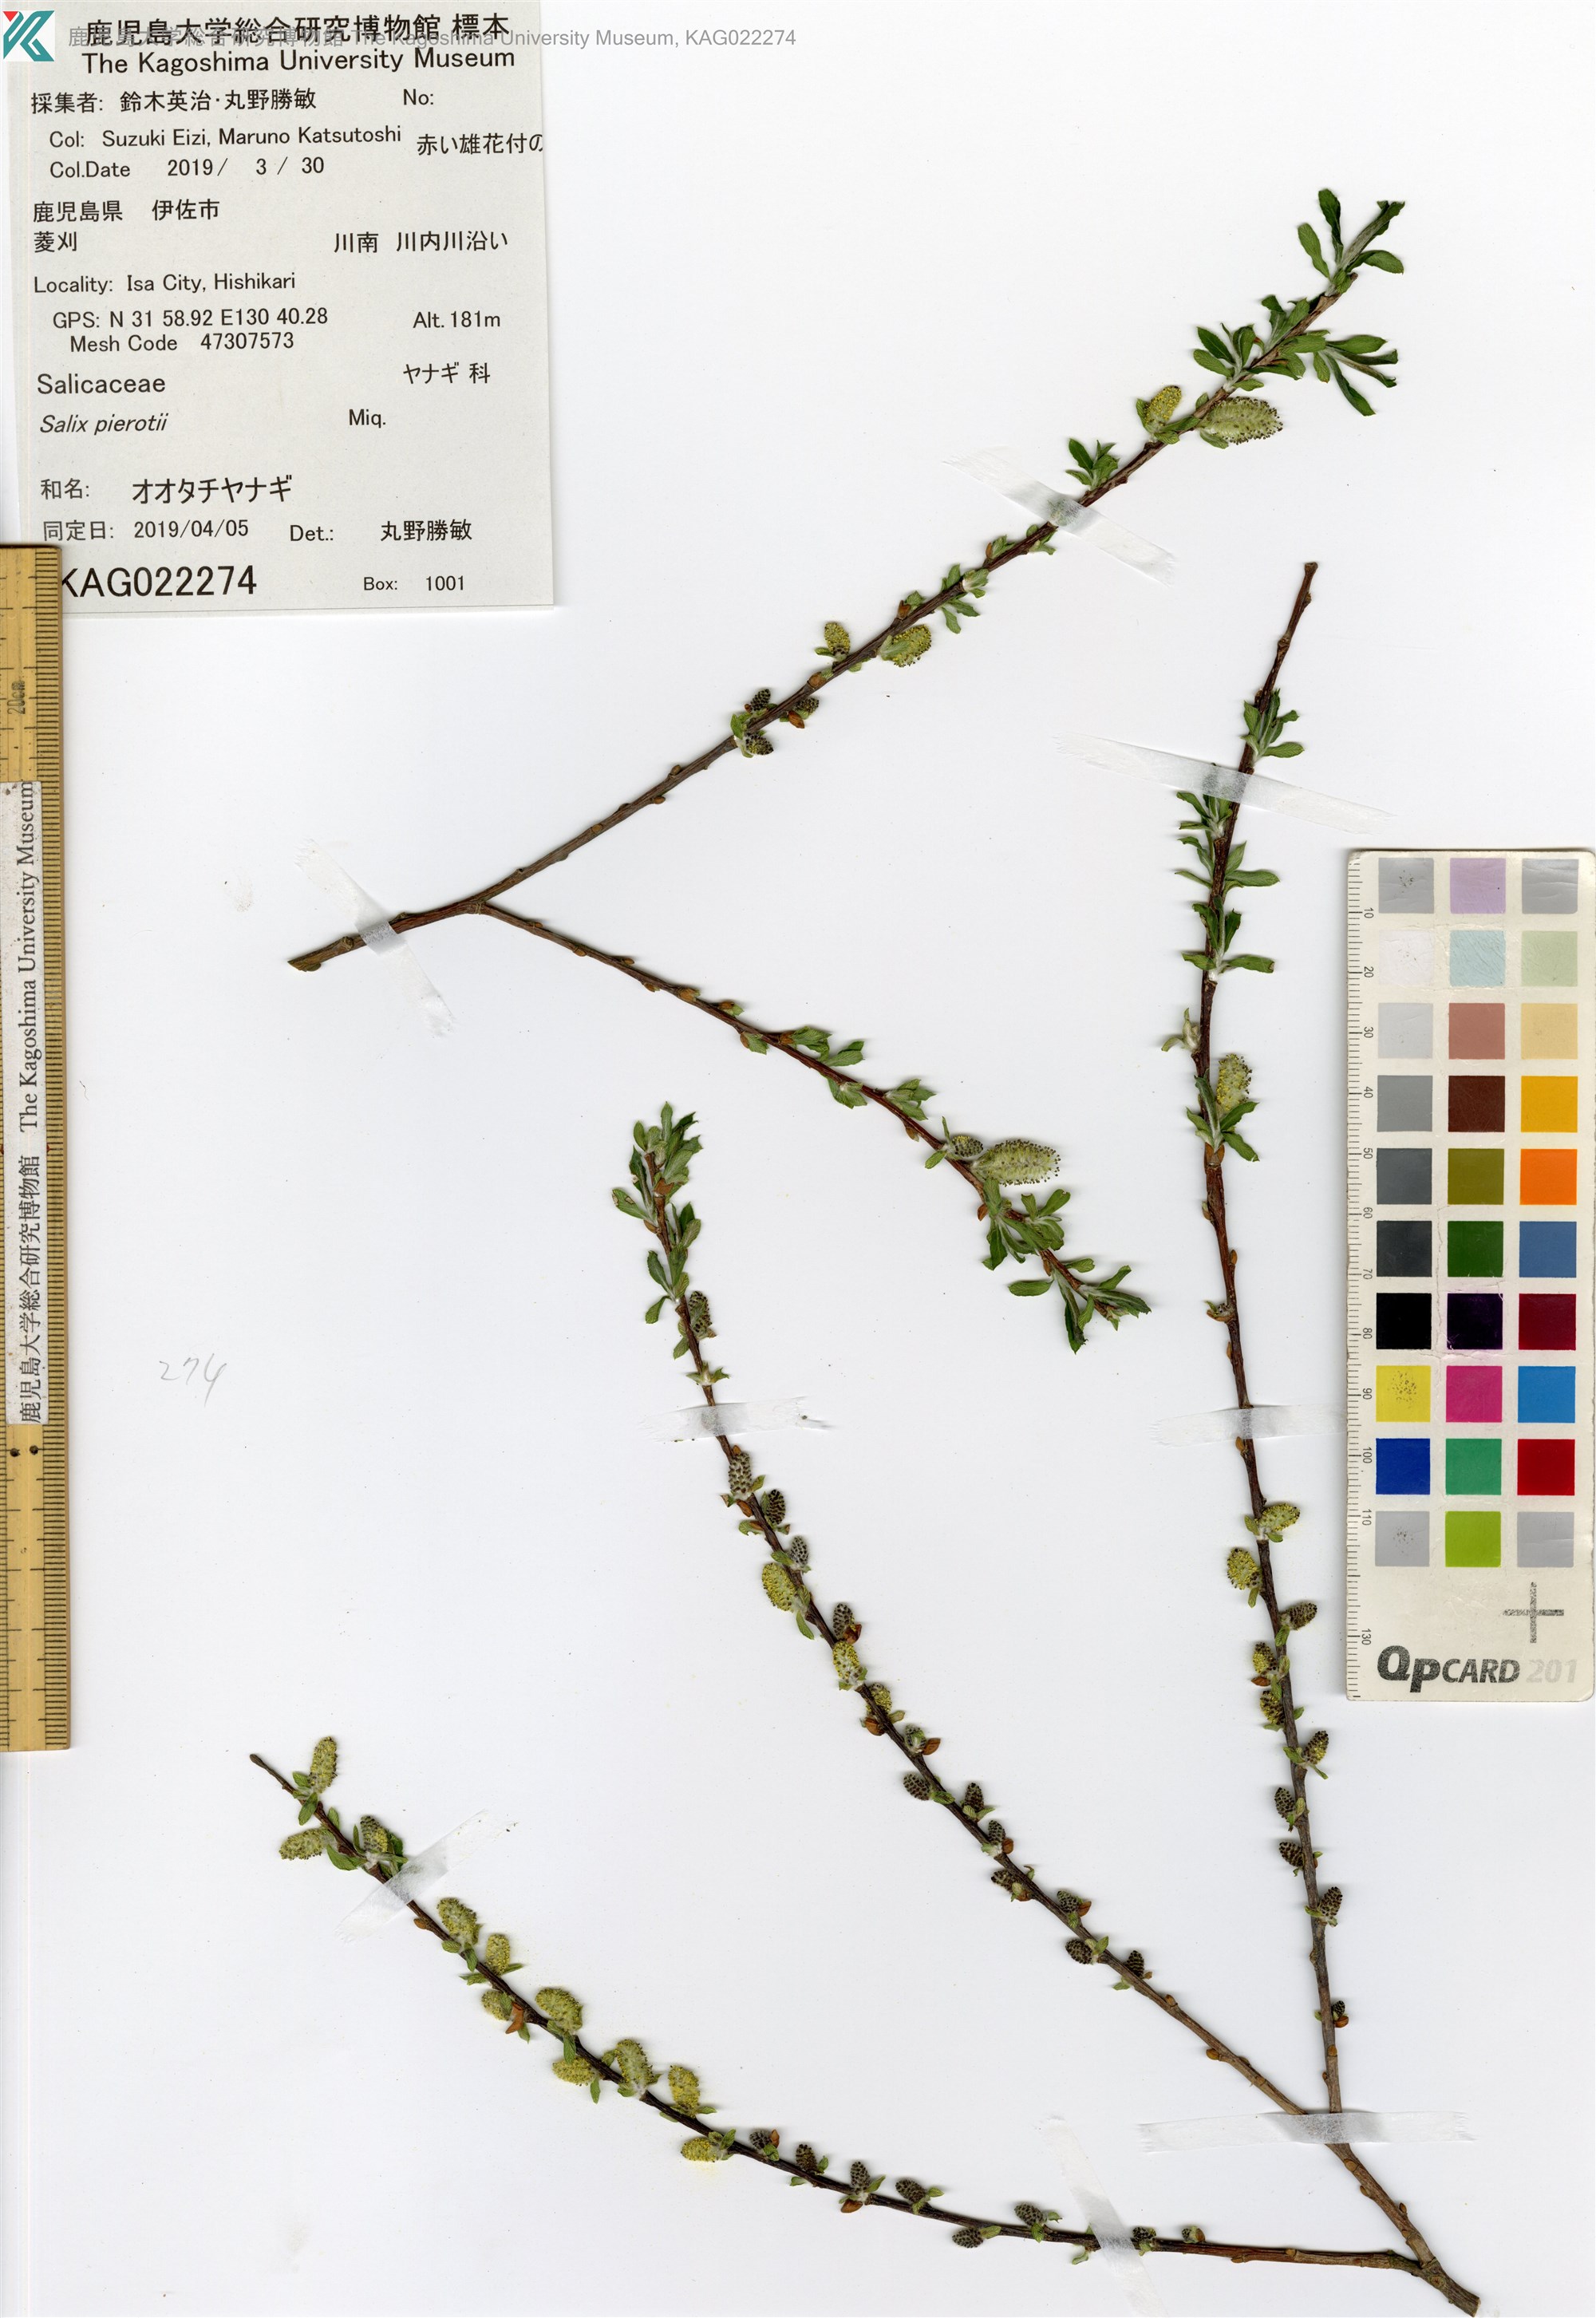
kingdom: Plantae
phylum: Tracheophyta
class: Magnoliopsida
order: Malpighiales
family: Salicaceae
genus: Salix
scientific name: Salix pierotii
